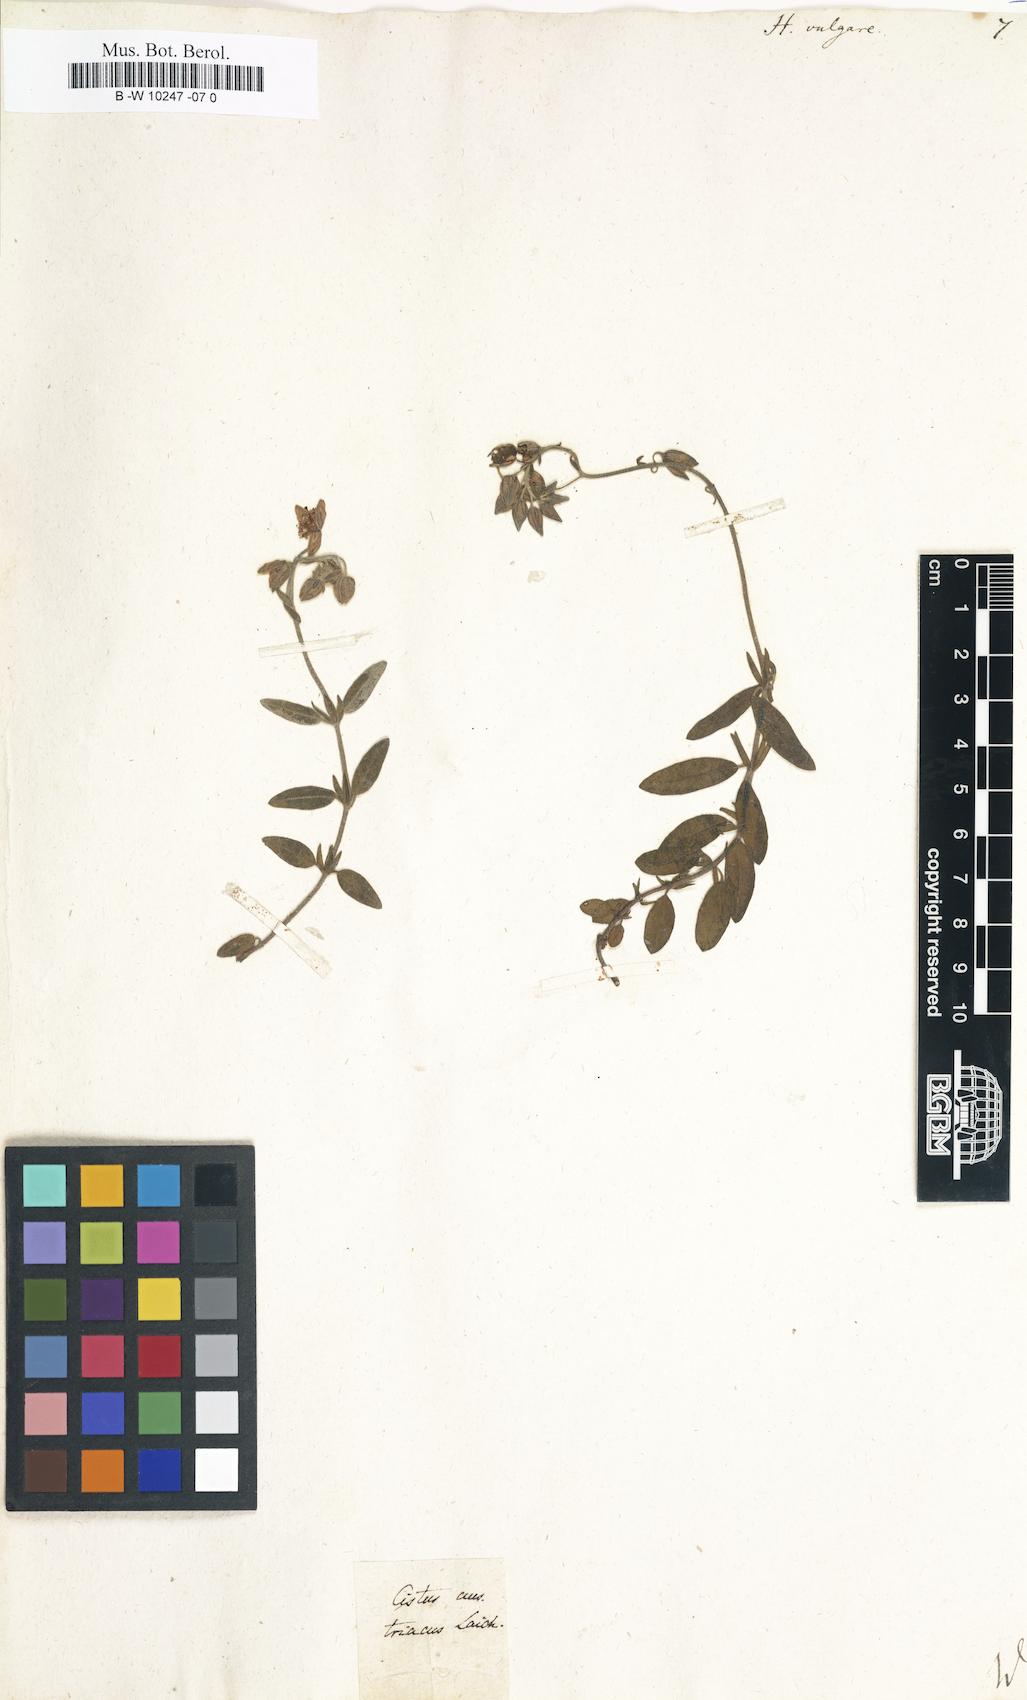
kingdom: Plantae
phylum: Tracheophyta
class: Magnoliopsida
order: Malvales
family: Cistaceae
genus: Helianthemum
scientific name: Helianthemum nummularium
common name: Common rock-rose
